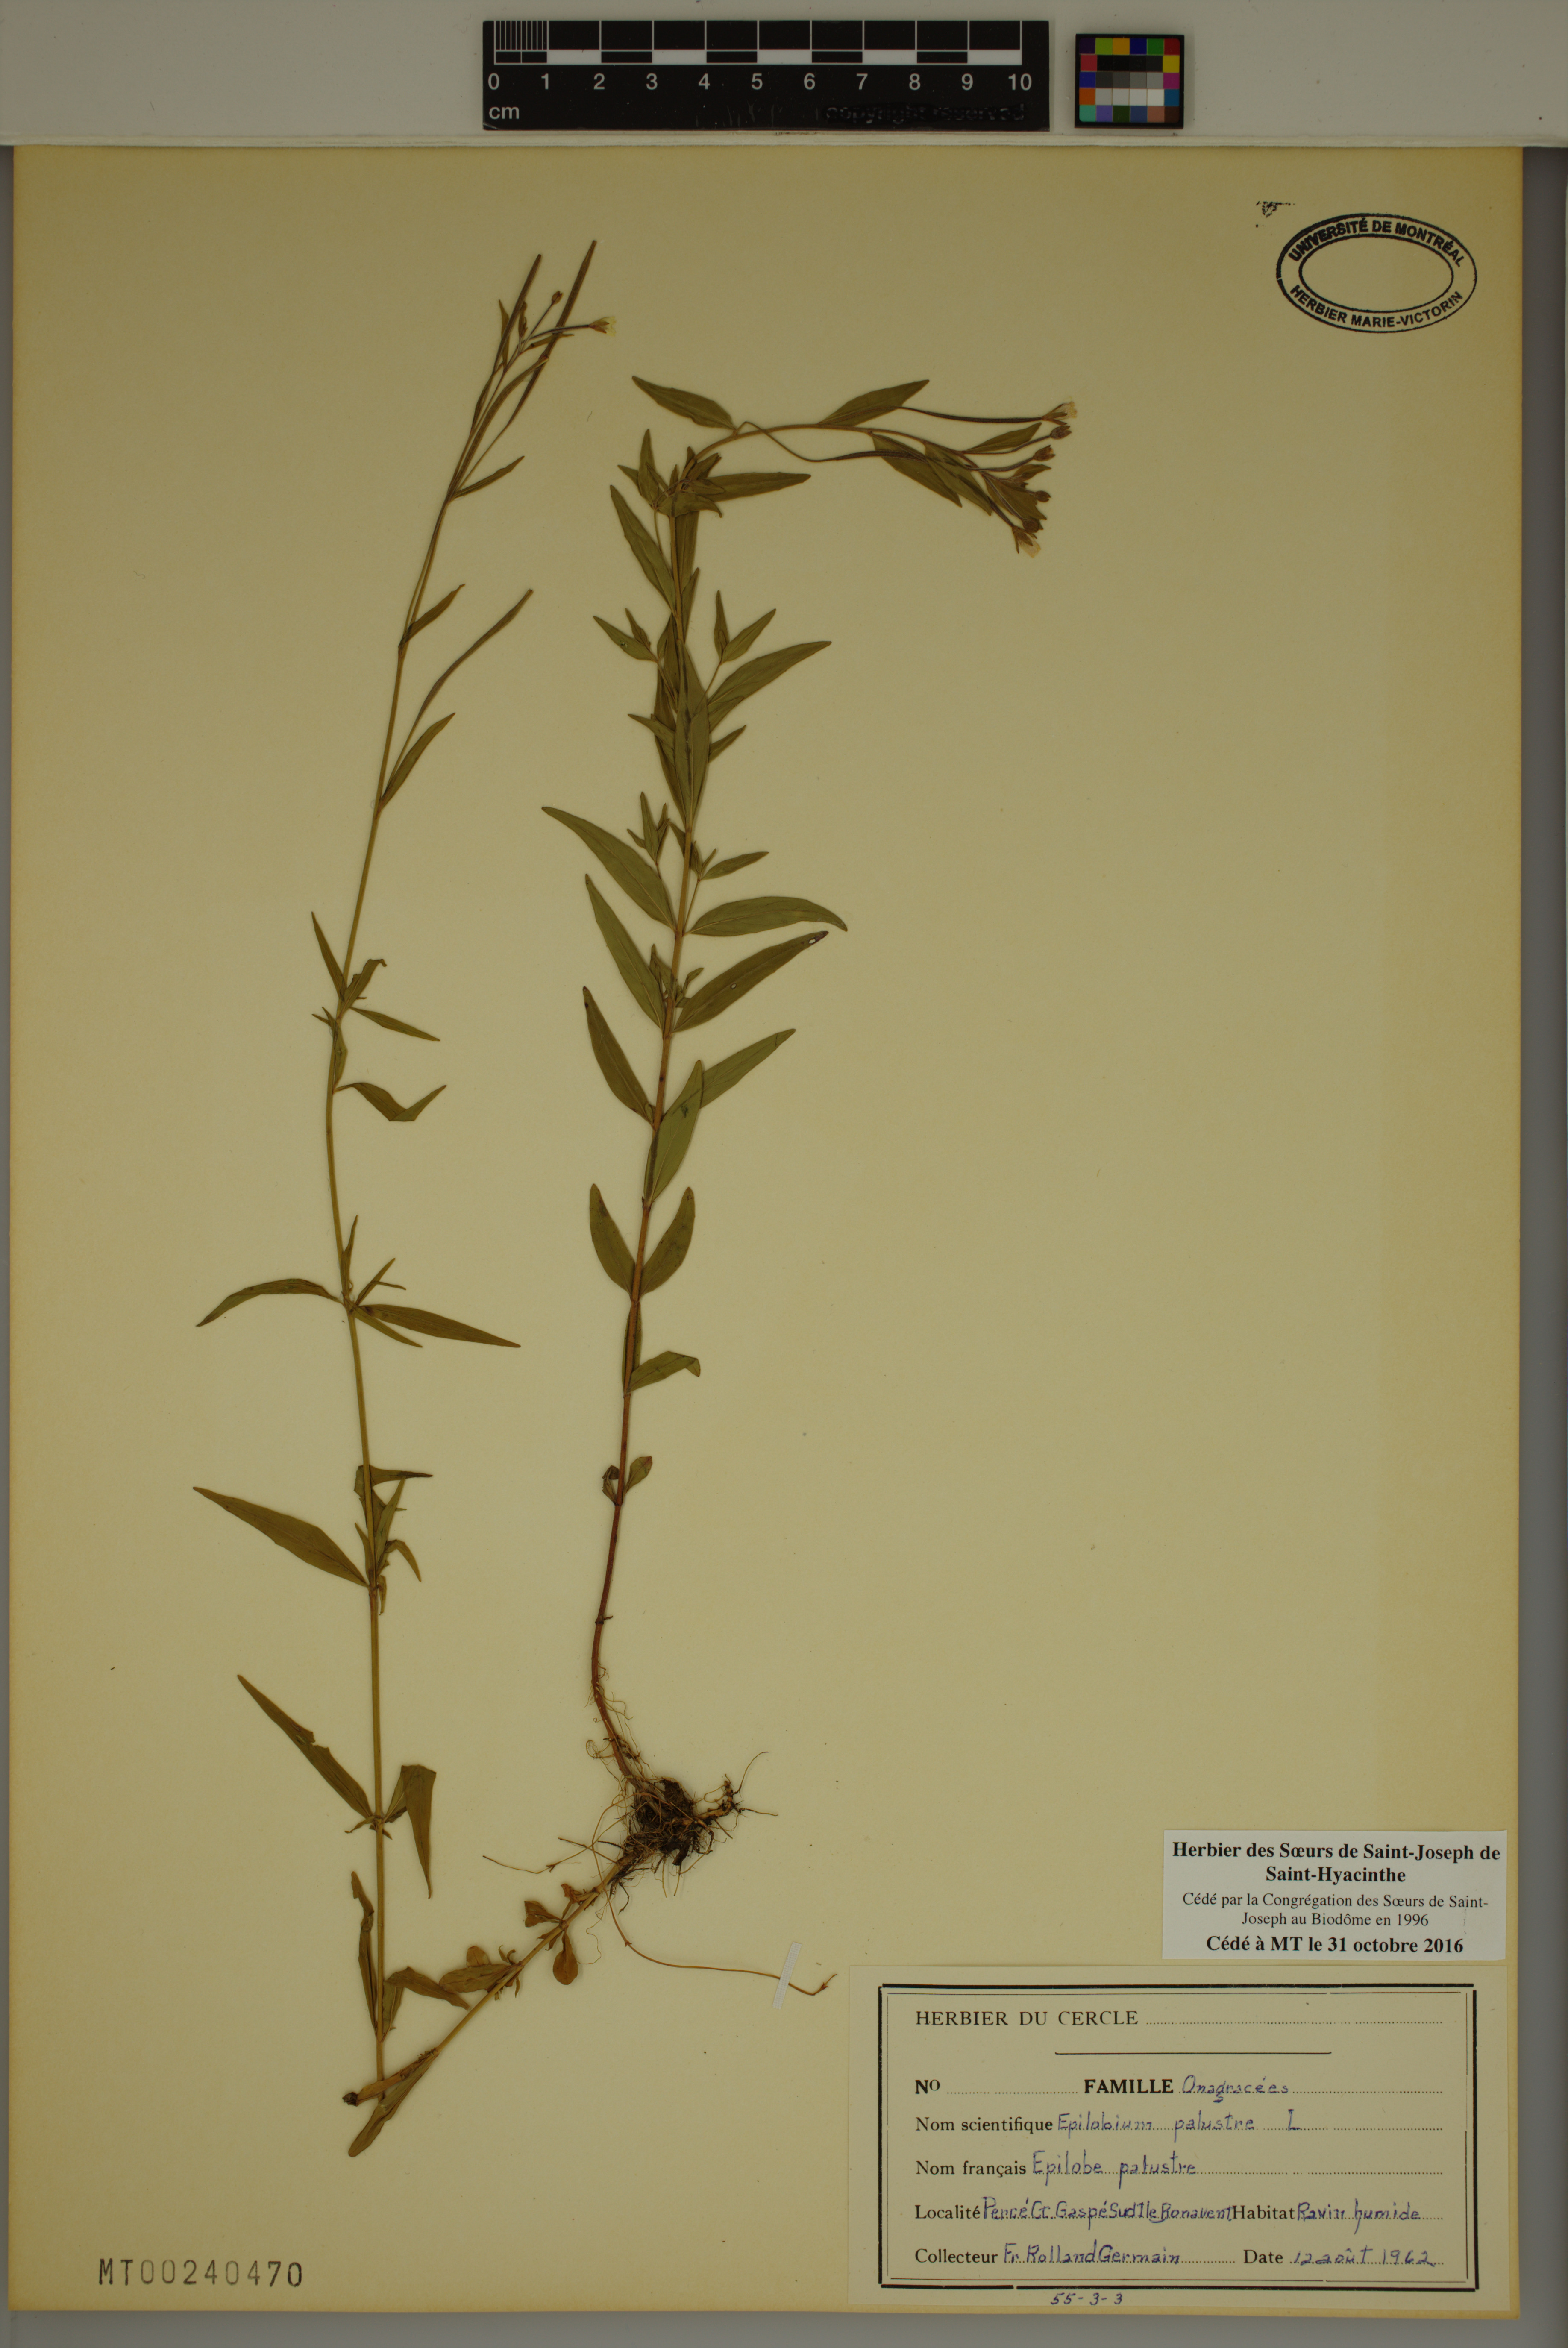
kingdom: Plantae
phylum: Tracheophyta
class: Magnoliopsida
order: Myrtales
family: Onagraceae
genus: Epilobium
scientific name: Epilobium palustre
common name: Marsh willowherb
